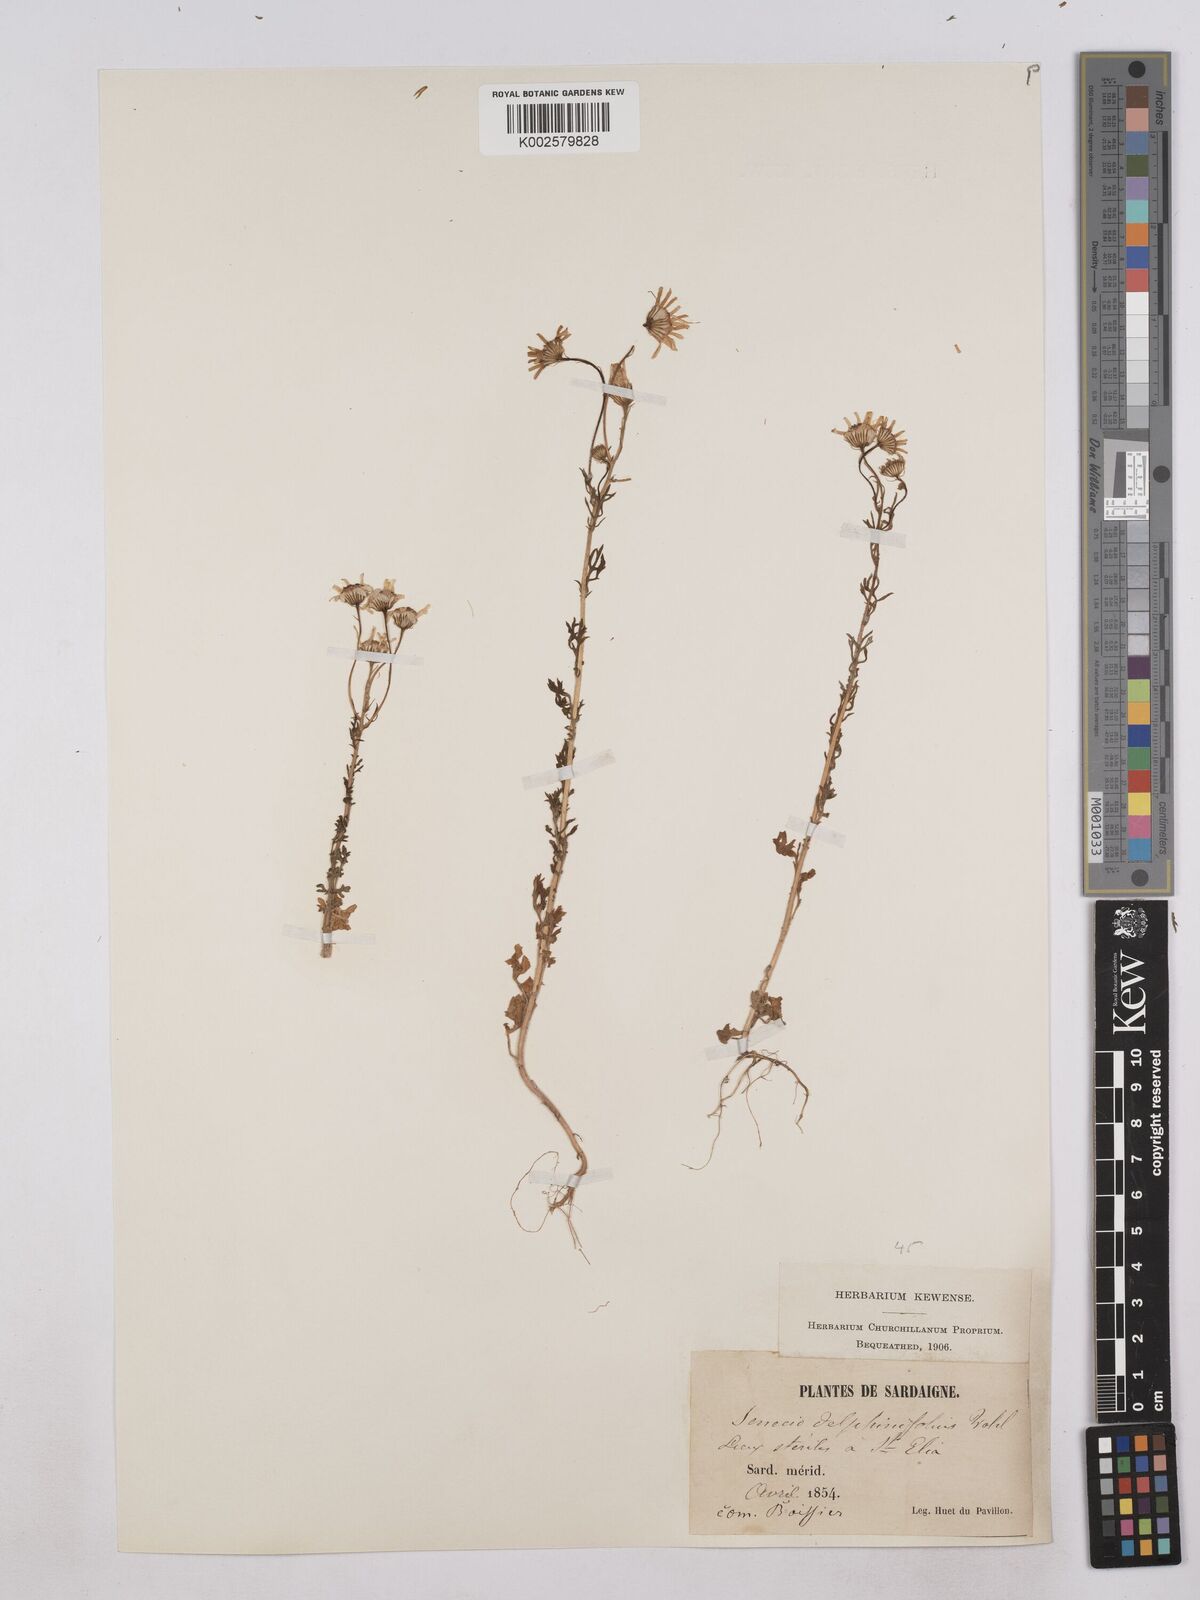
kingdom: Plantae
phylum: Tracheophyta
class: Magnoliopsida
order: Asterales
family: Asteraceae
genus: Jacobaea
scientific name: Jacobaea erucifolia
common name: Hoary ragwort
